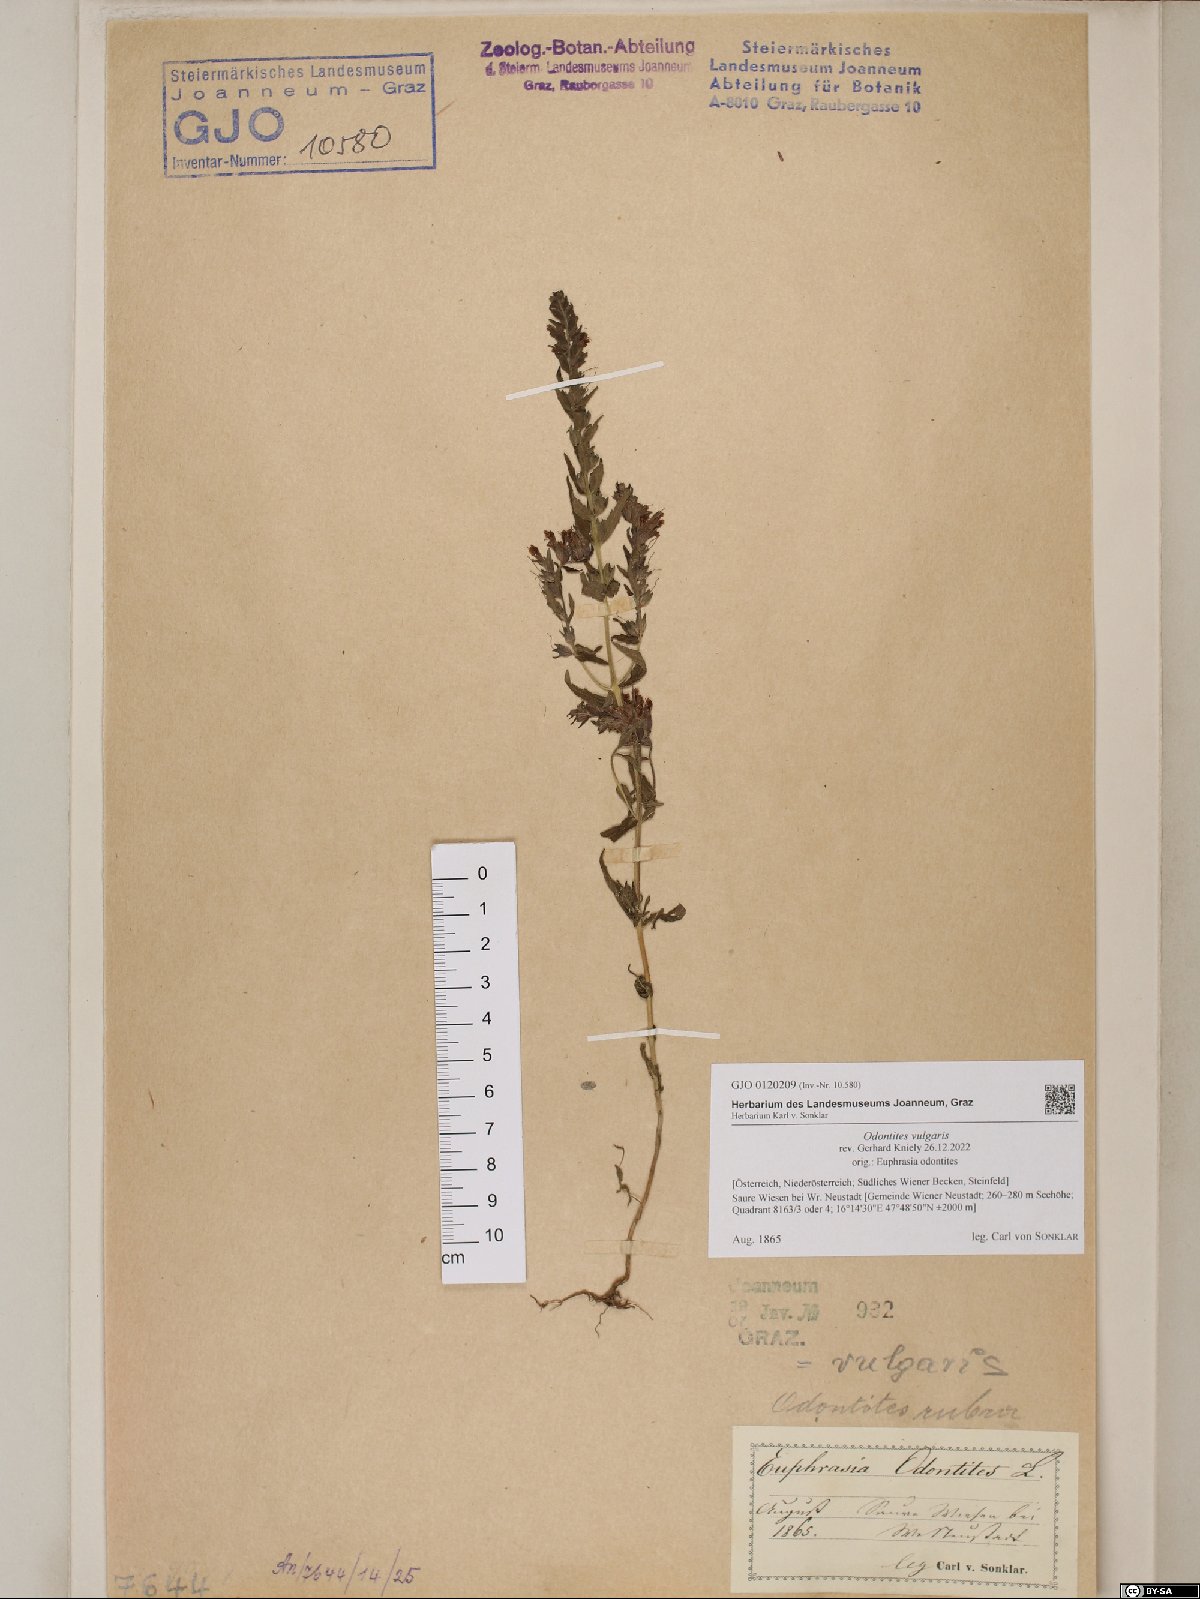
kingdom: Plantae
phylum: Tracheophyta
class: Magnoliopsida
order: Lamiales
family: Orobanchaceae
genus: Odontites
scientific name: Odontites vulgaris
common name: Broomrape
